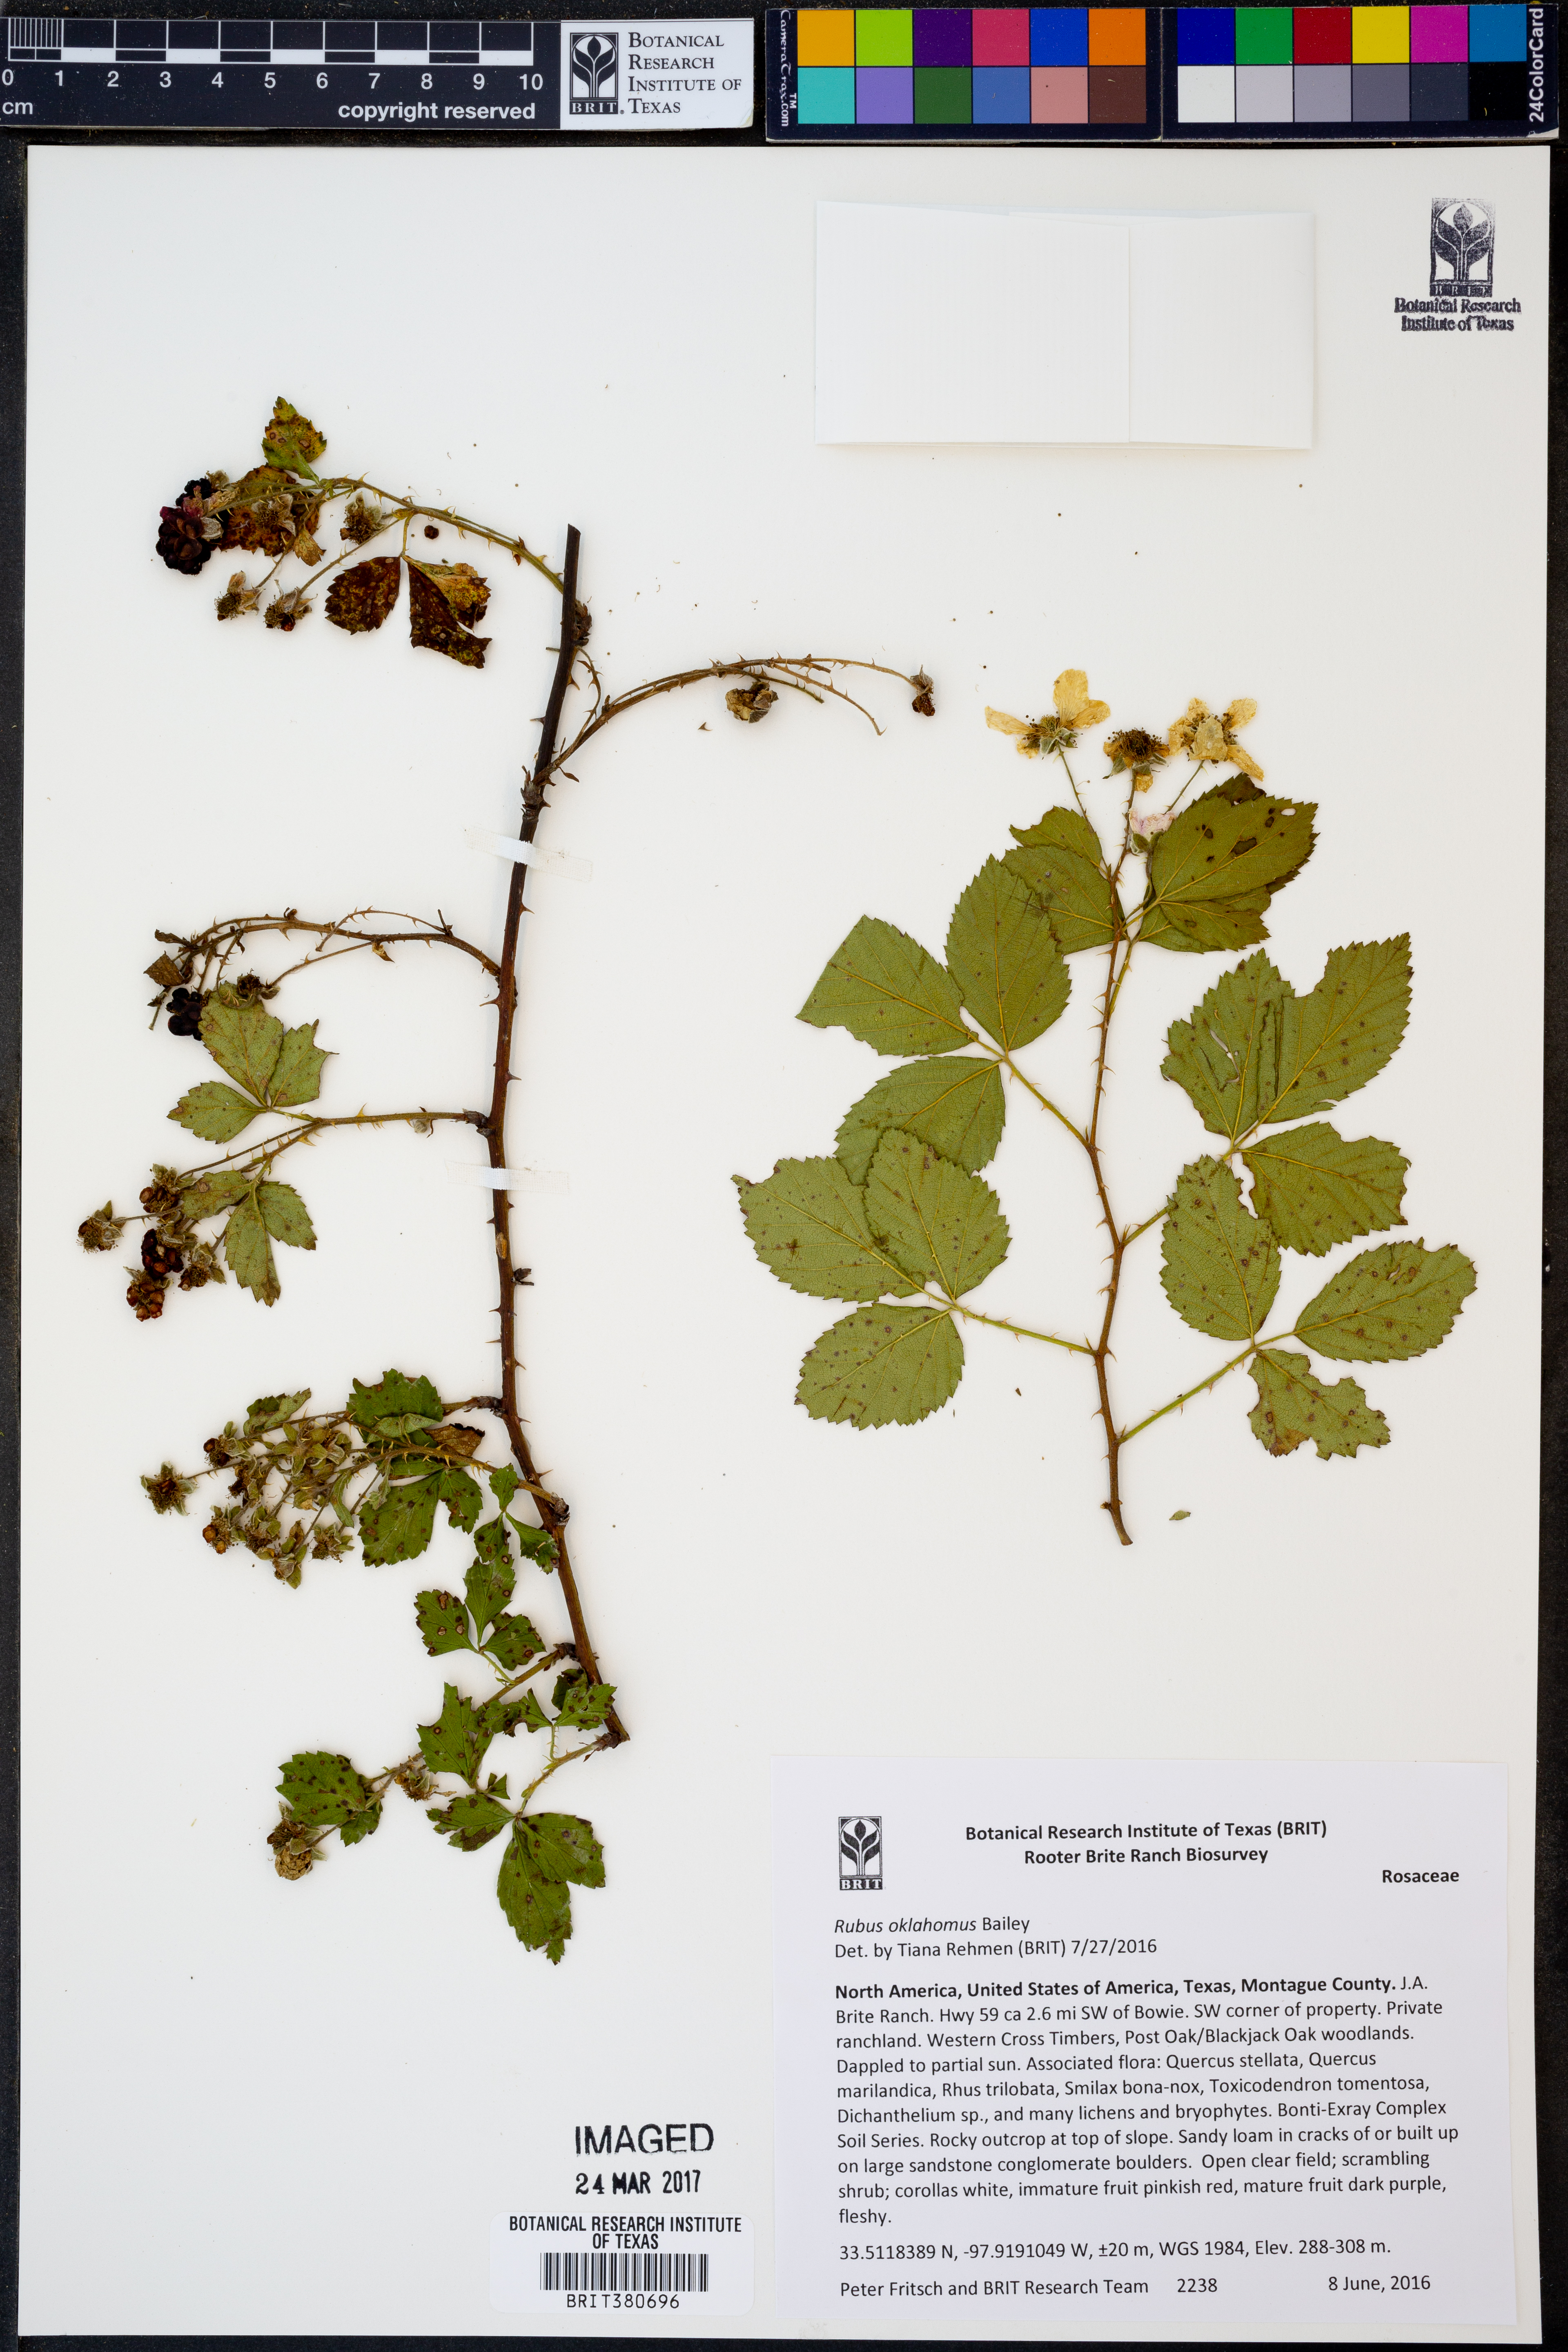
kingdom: Plantae
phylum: Tracheophyta
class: Magnoliopsida
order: Rosales
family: Rosaceae
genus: Rubus
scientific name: Rubus oklahomus
